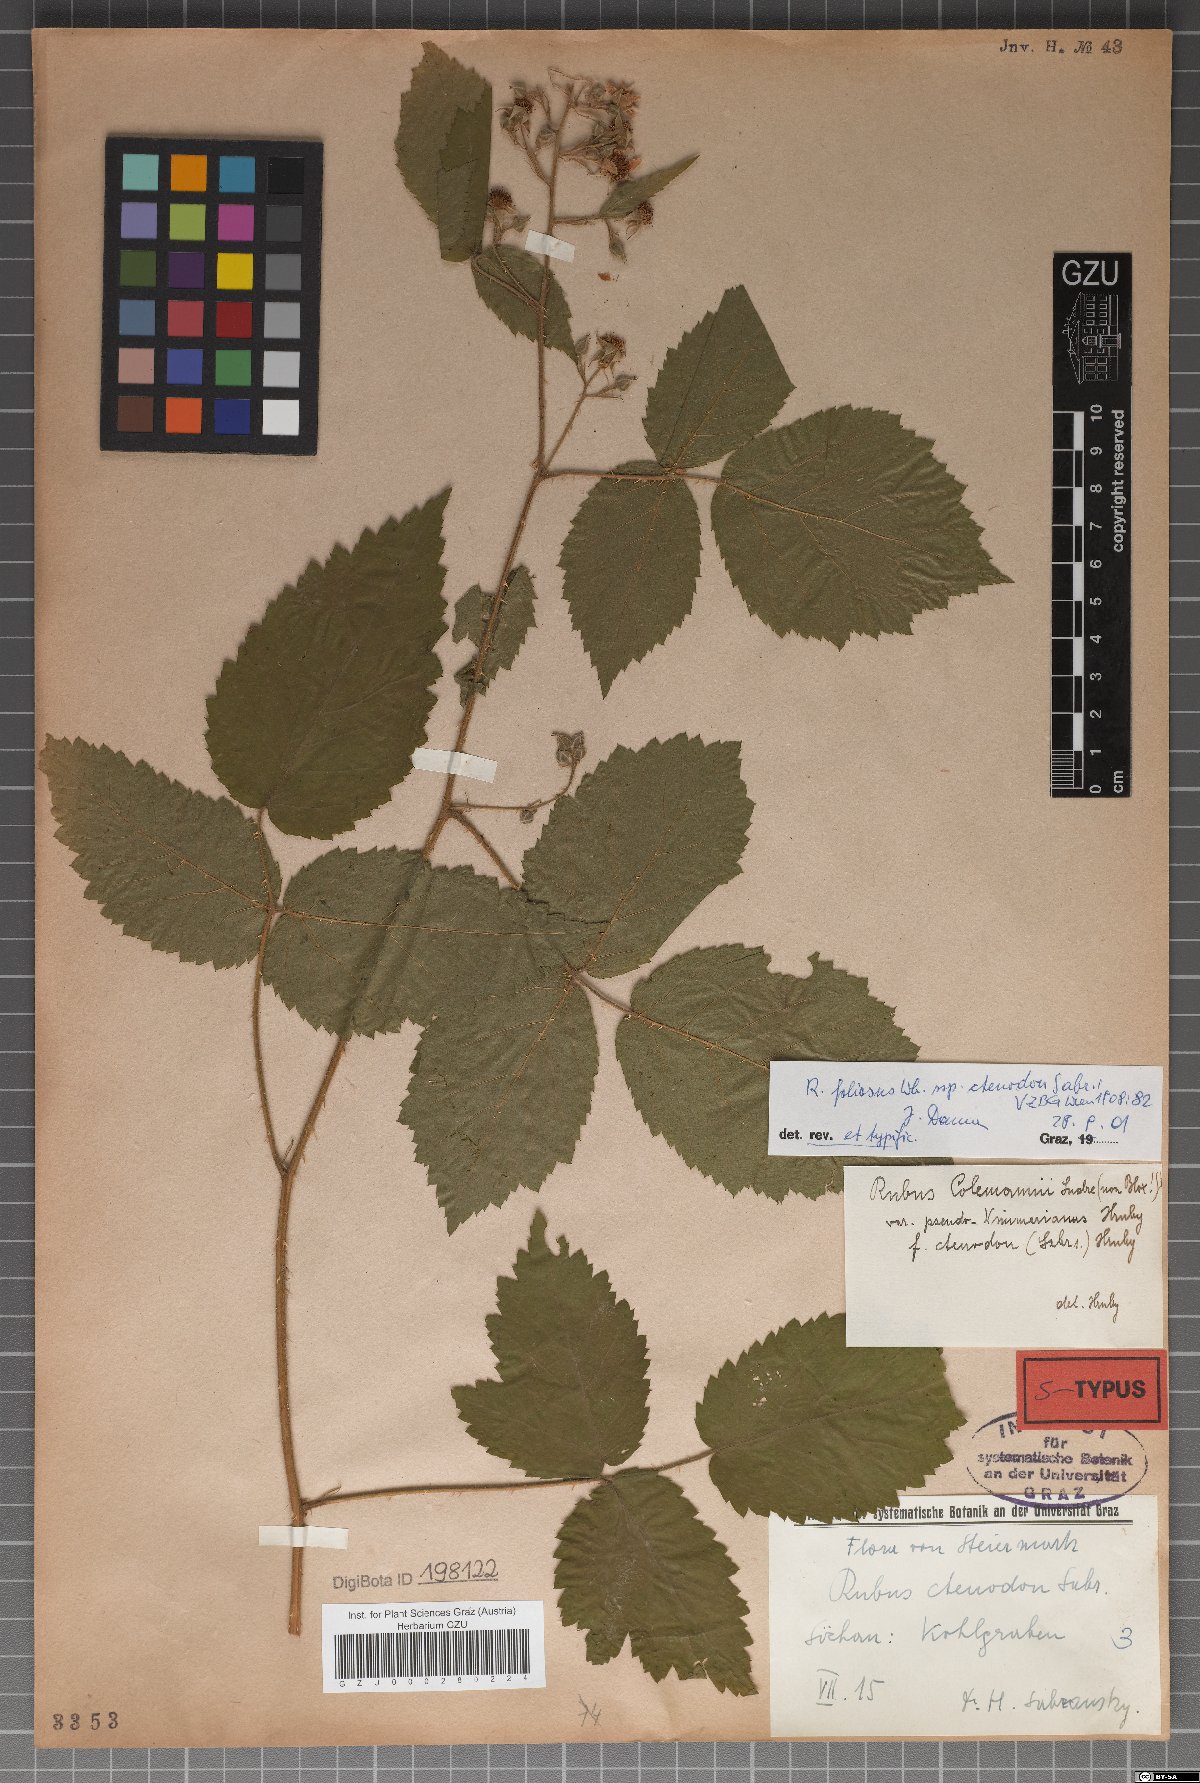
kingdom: Plantae
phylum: Tracheophyta
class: Magnoliopsida
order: Rosales
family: Rosaceae
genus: Rubus
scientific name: Rubus foliosus
